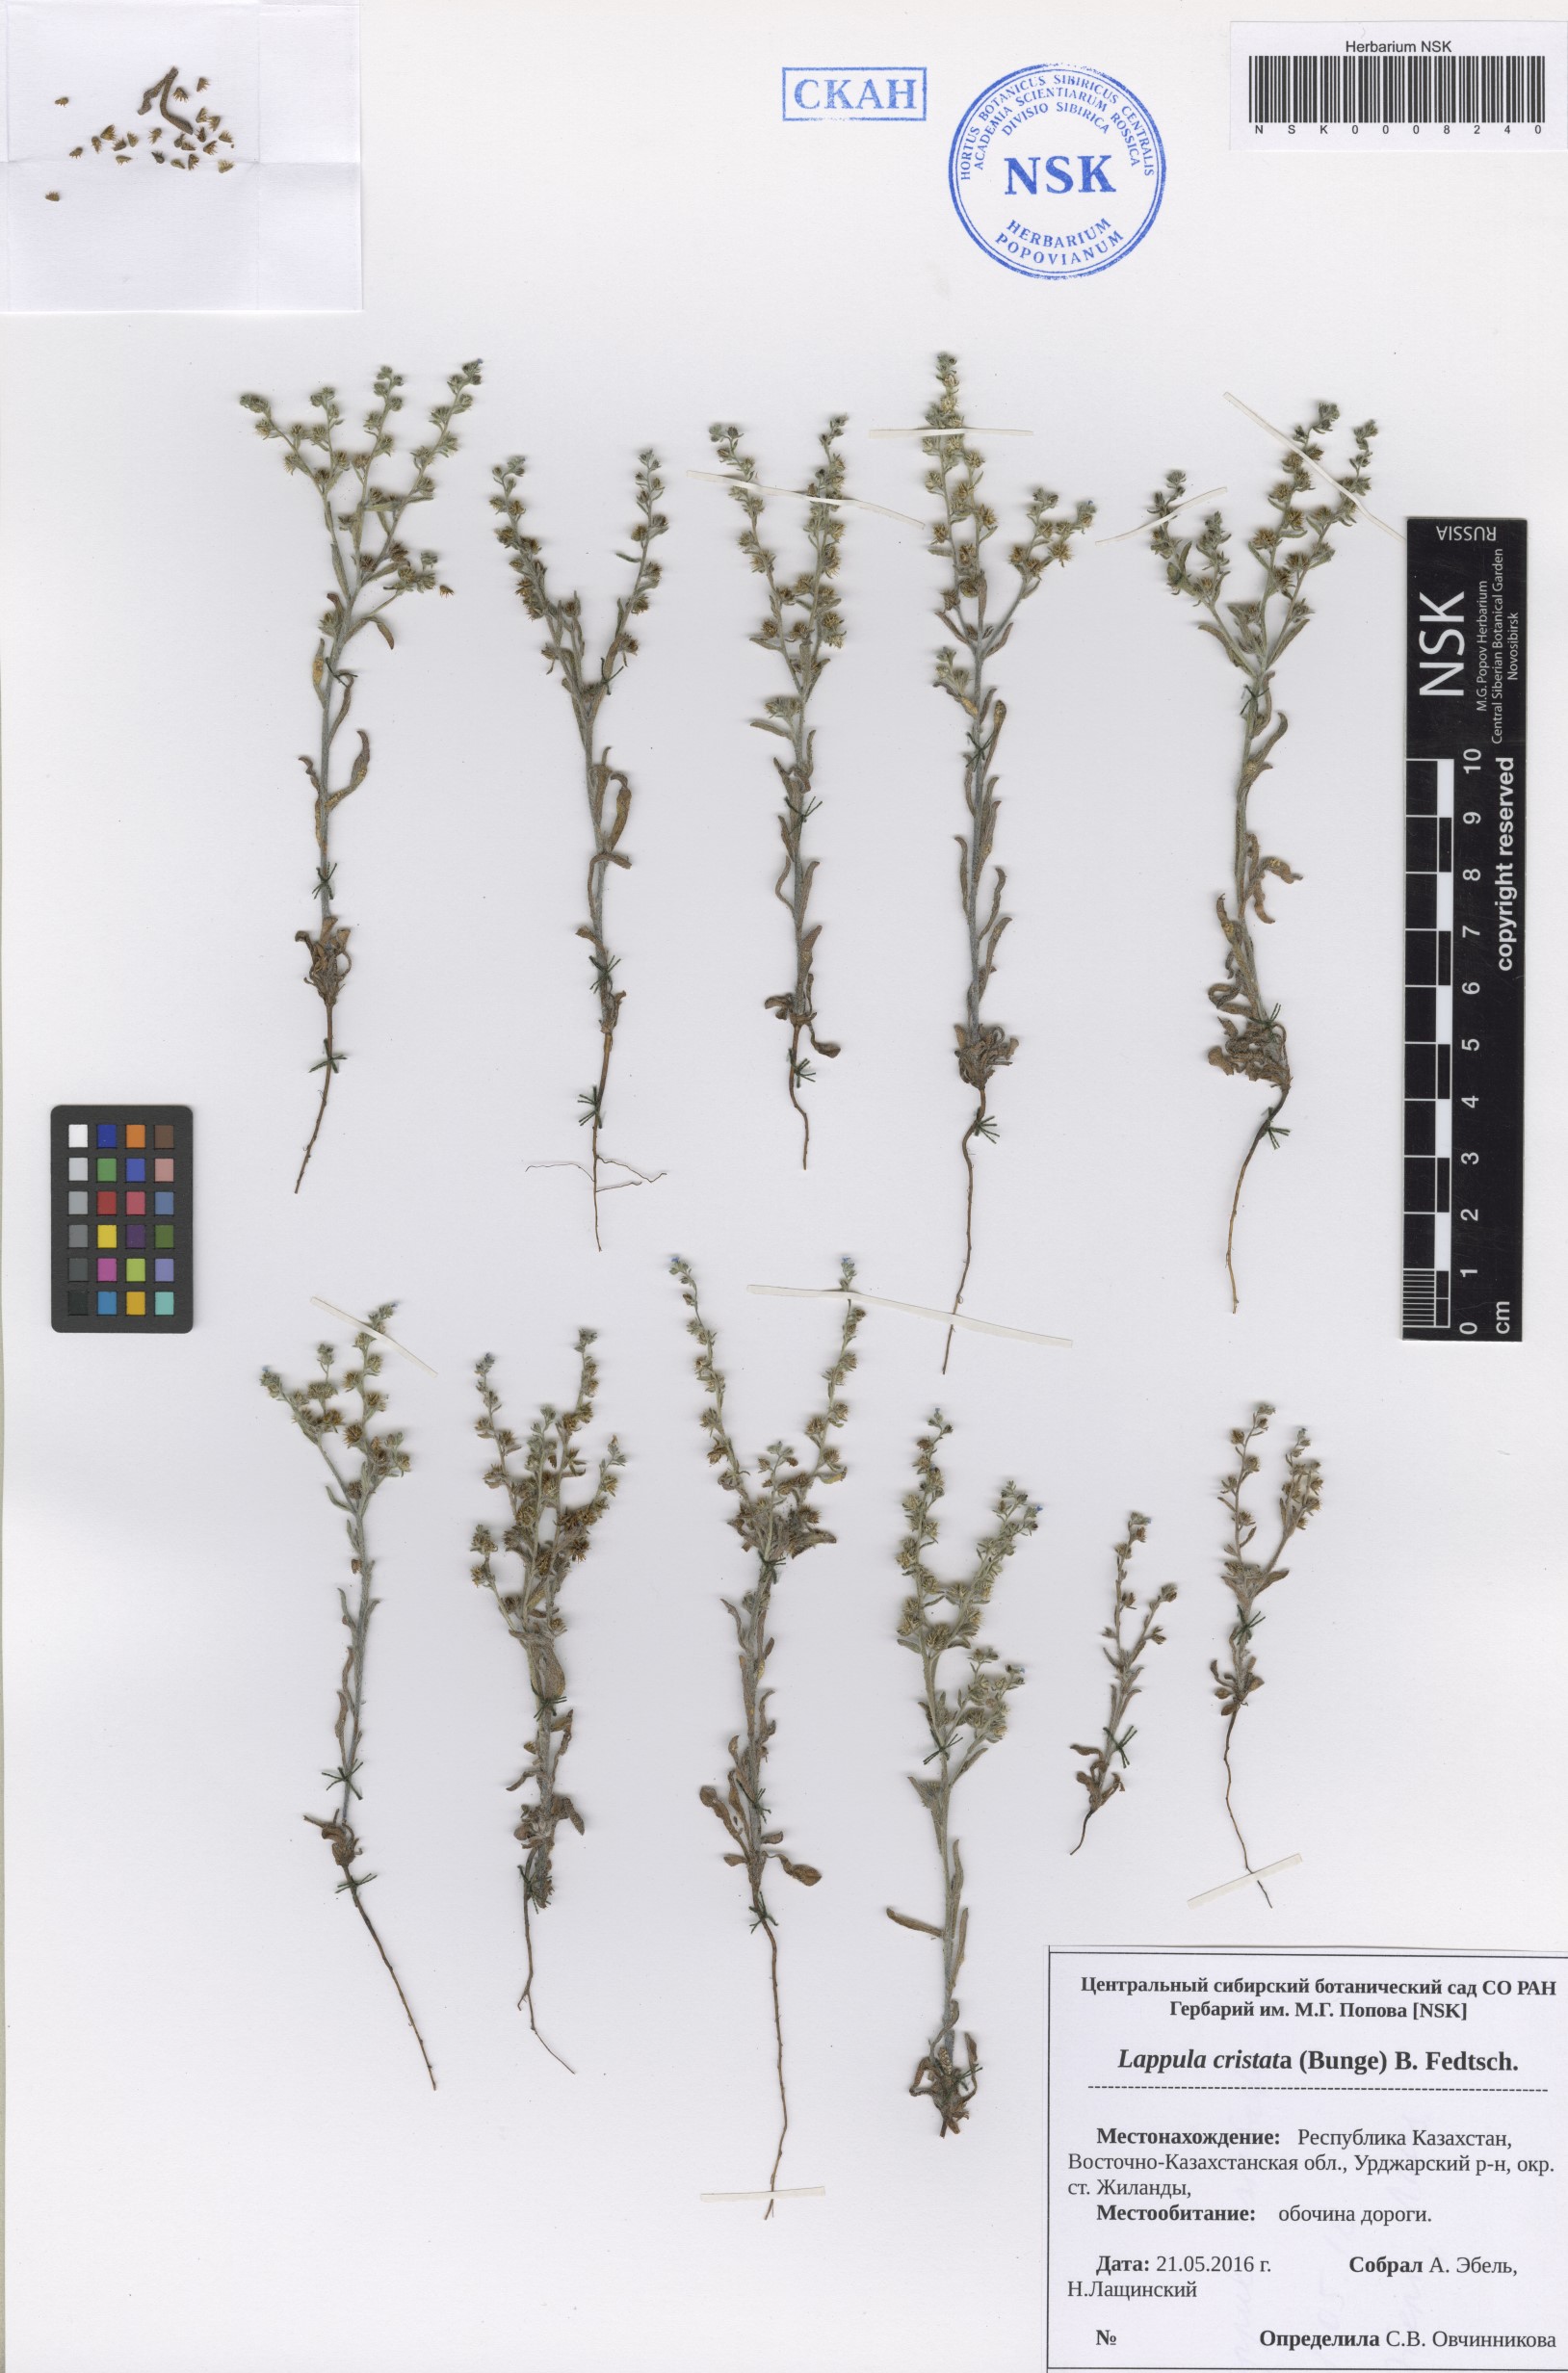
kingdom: Plantae
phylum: Tracheophyta
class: Magnoliopsida
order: Boraginales
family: Boraginaceae
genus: Paracaryum
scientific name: Paracaryum cristatum
